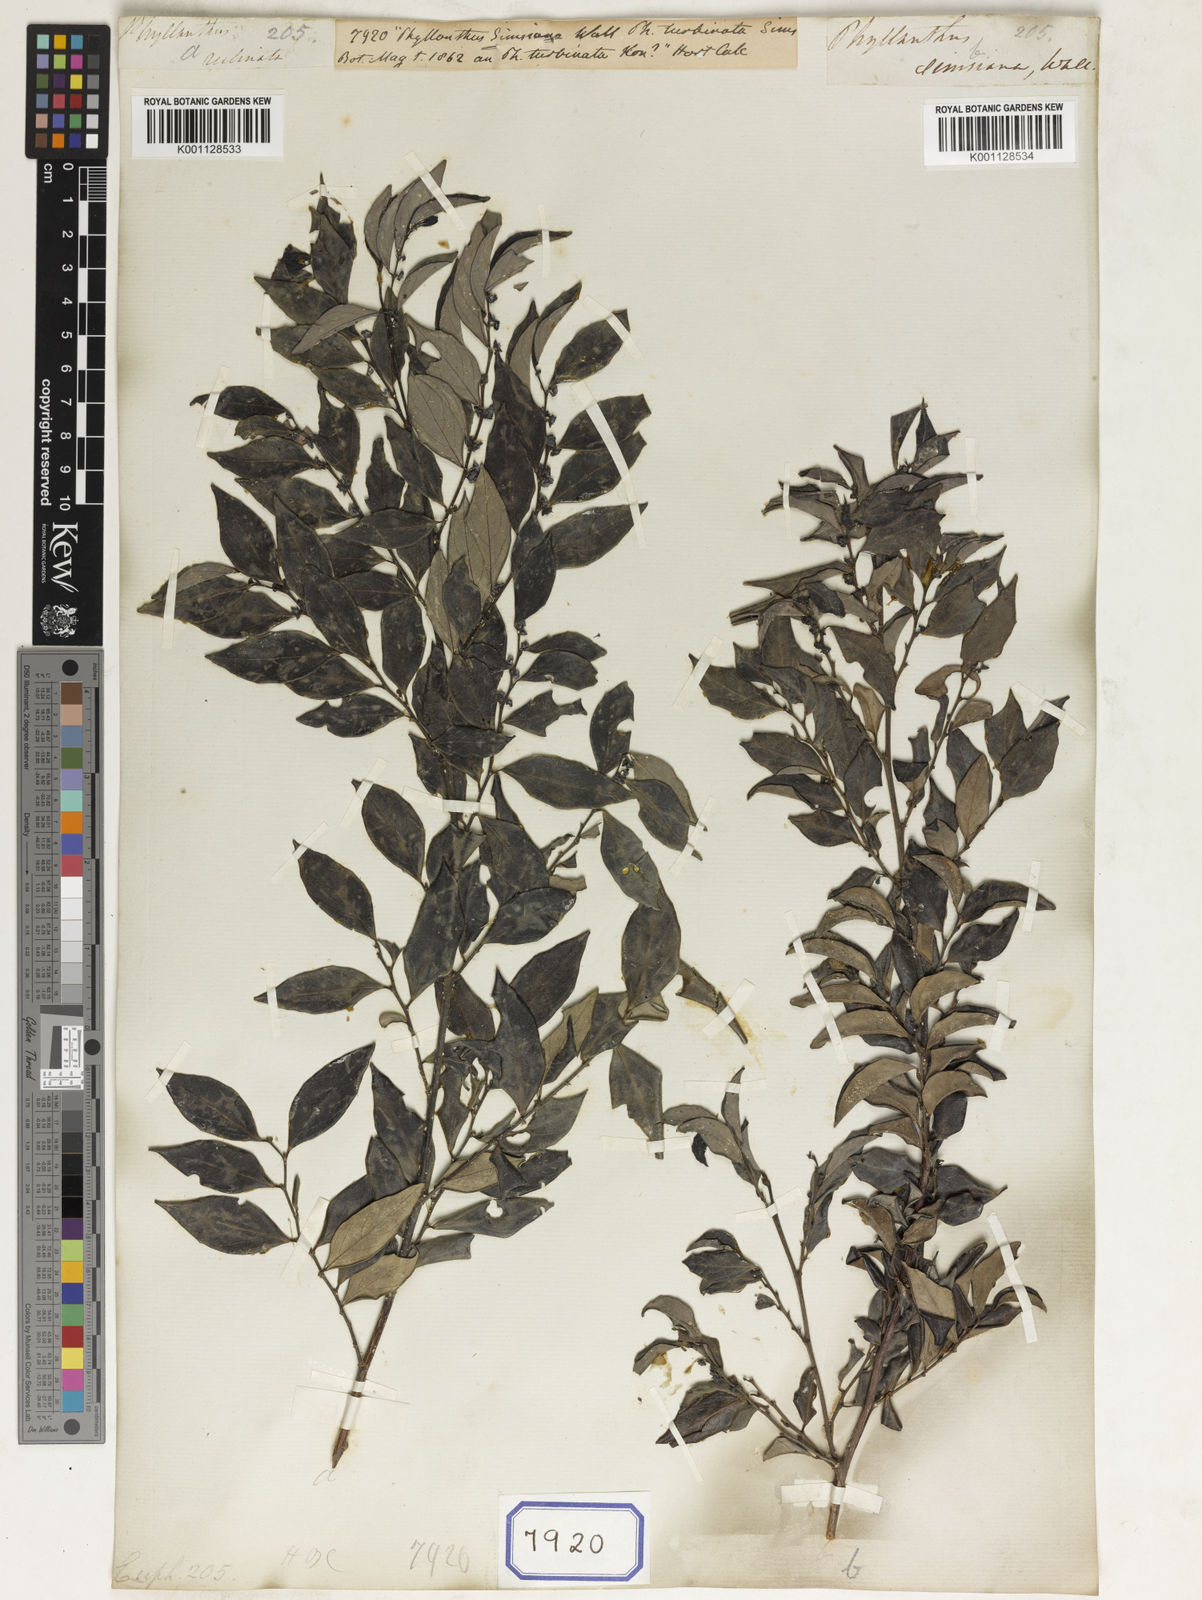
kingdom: Plantae
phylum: Tracheophyta
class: Magnoliopsida
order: Malpighiales
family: Euphorbiaceae
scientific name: Euphorbiaceae
